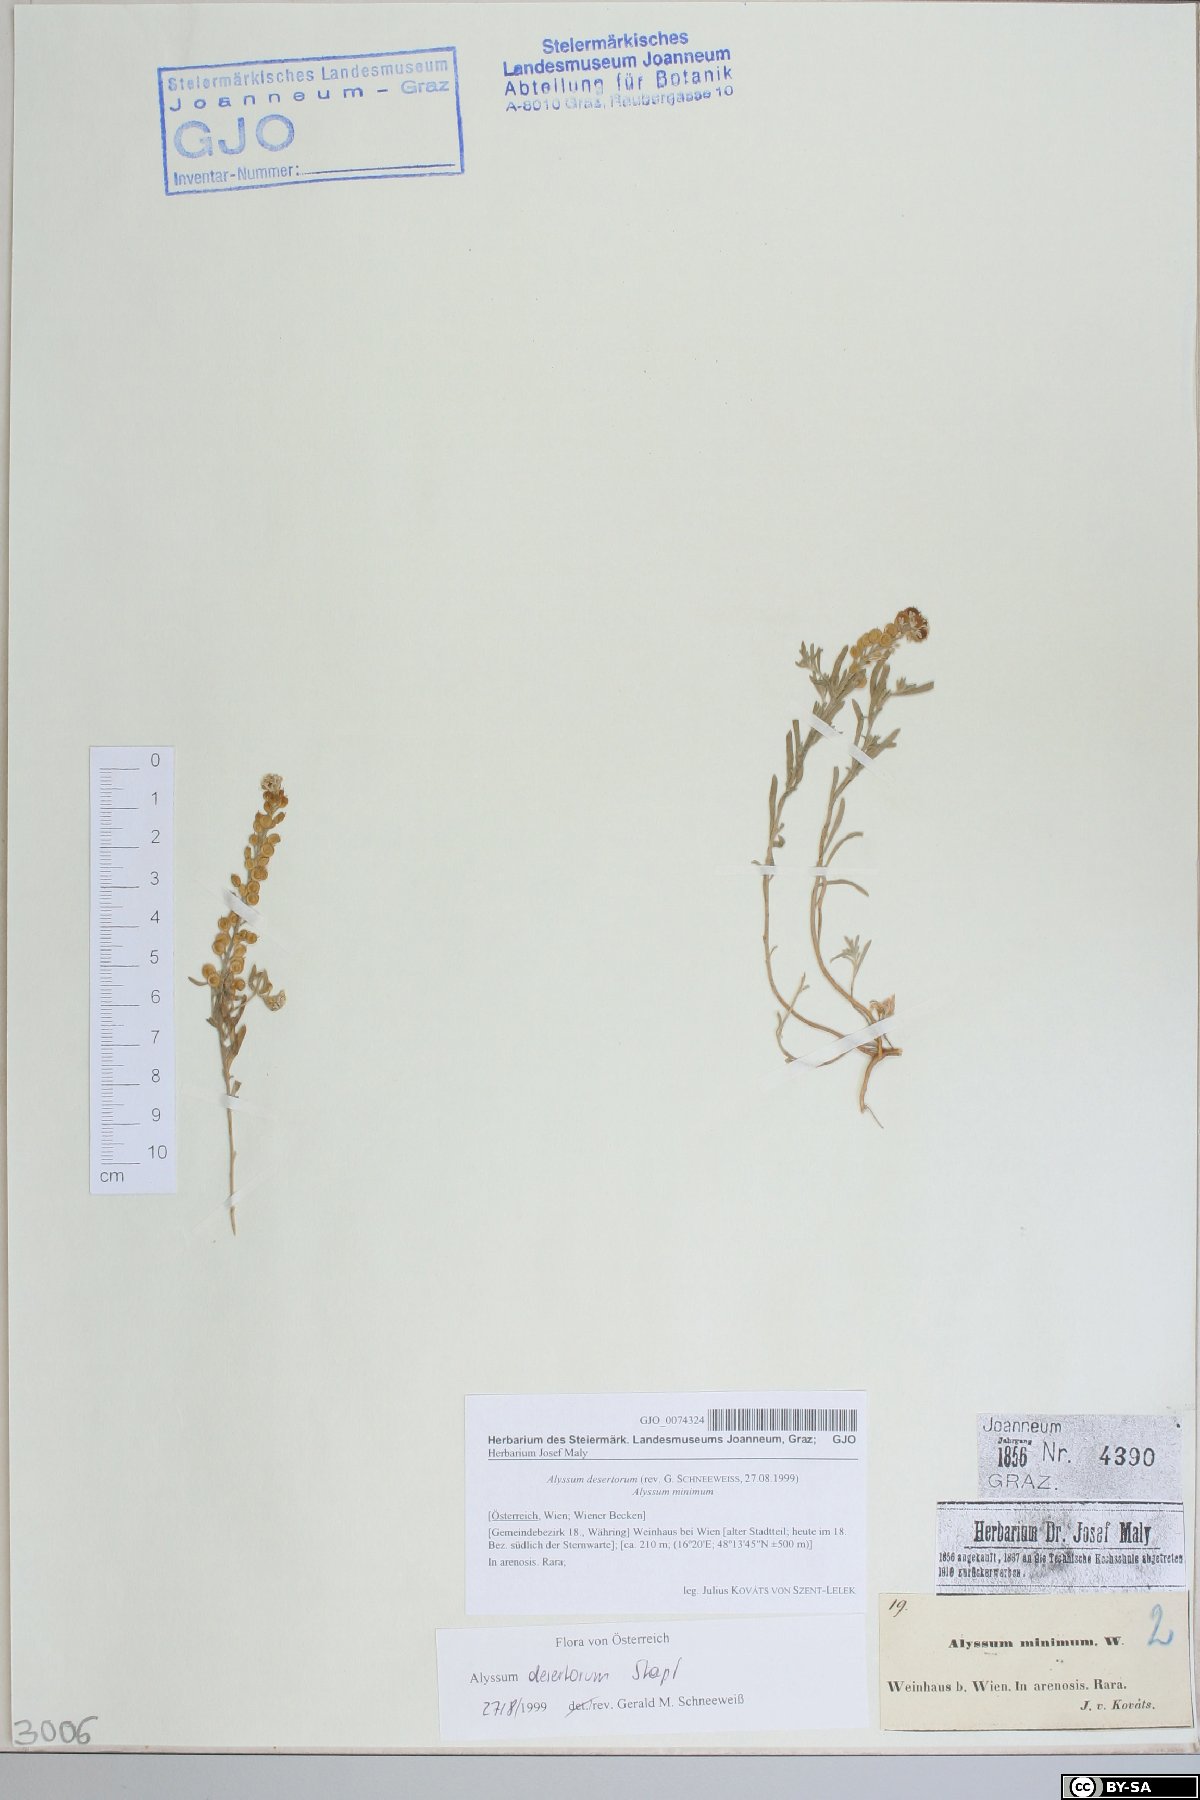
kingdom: Plantae
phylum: Tracheophyta
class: Magnoliopsida
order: Brassicales
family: Brassicaceae
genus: Alyssum
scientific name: Alyssum turkestanicum
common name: Desert alyssum
